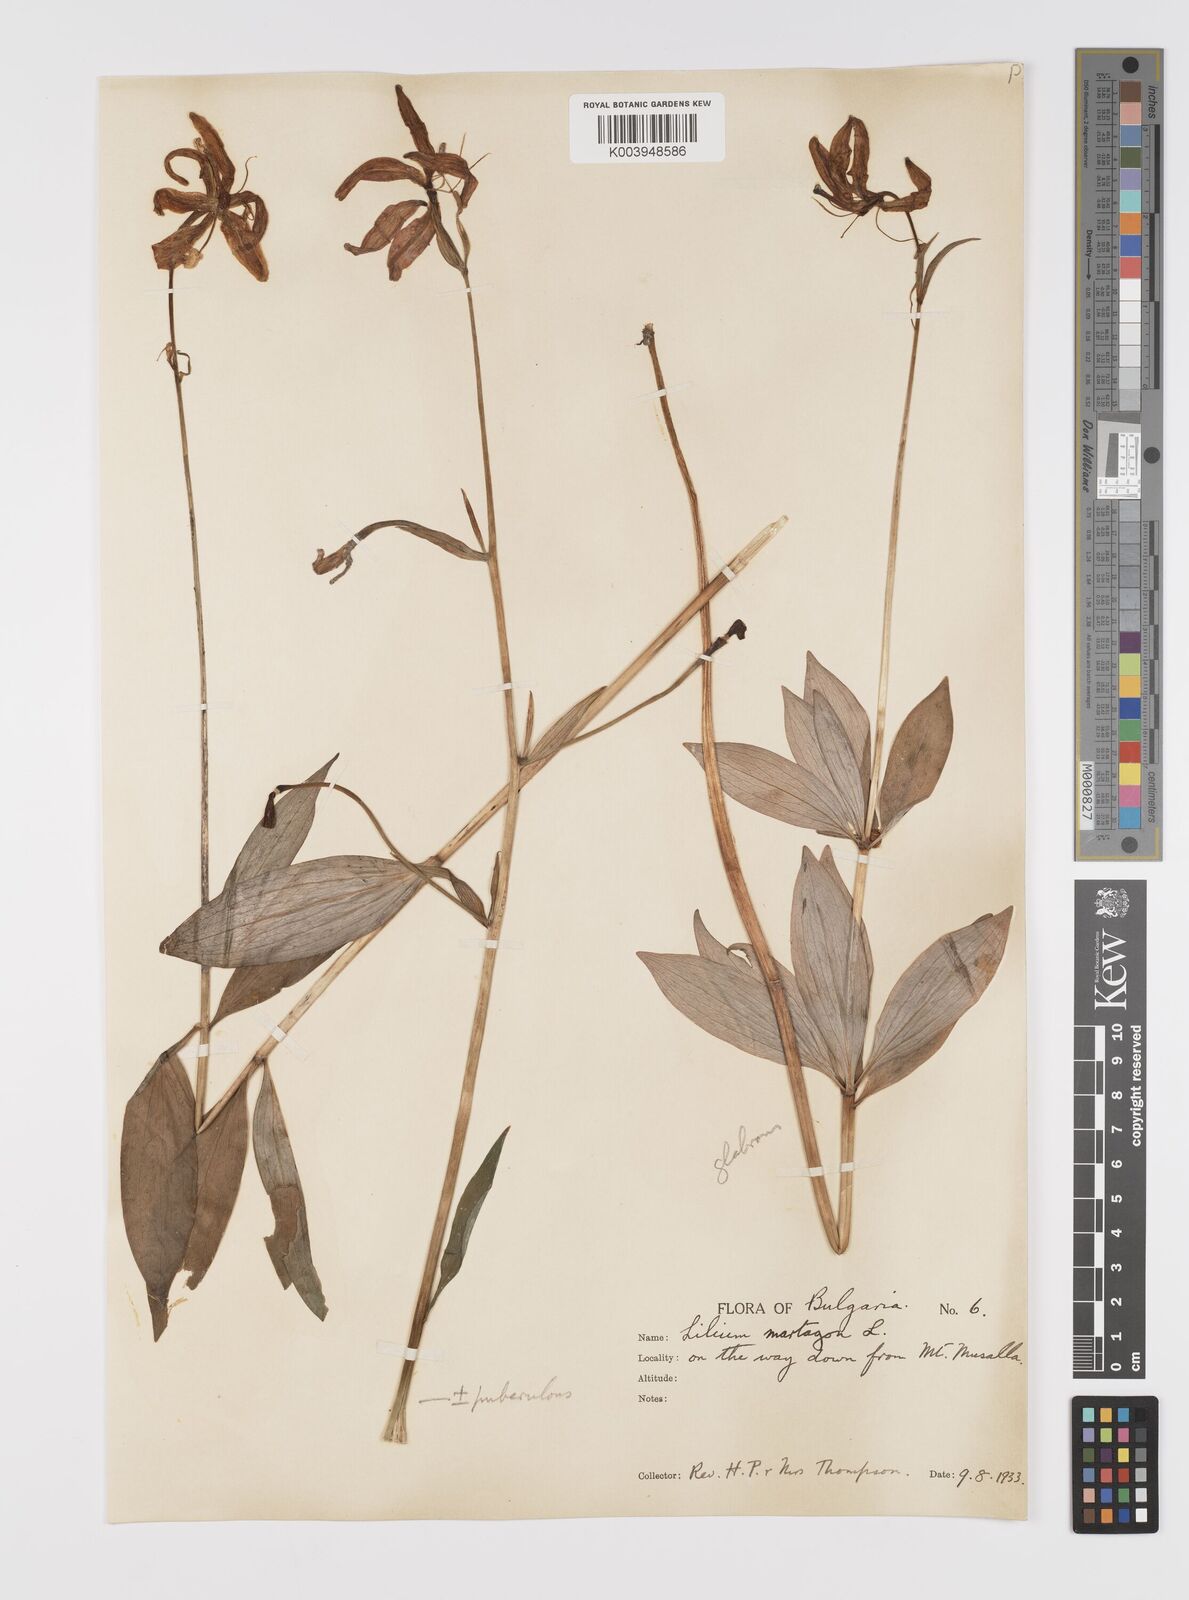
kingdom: Plantae
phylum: Tracheophyta
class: Liliopsida
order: Liliales
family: Liliaceae
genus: Lilium
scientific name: Lilium martagon
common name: Martagon lily
